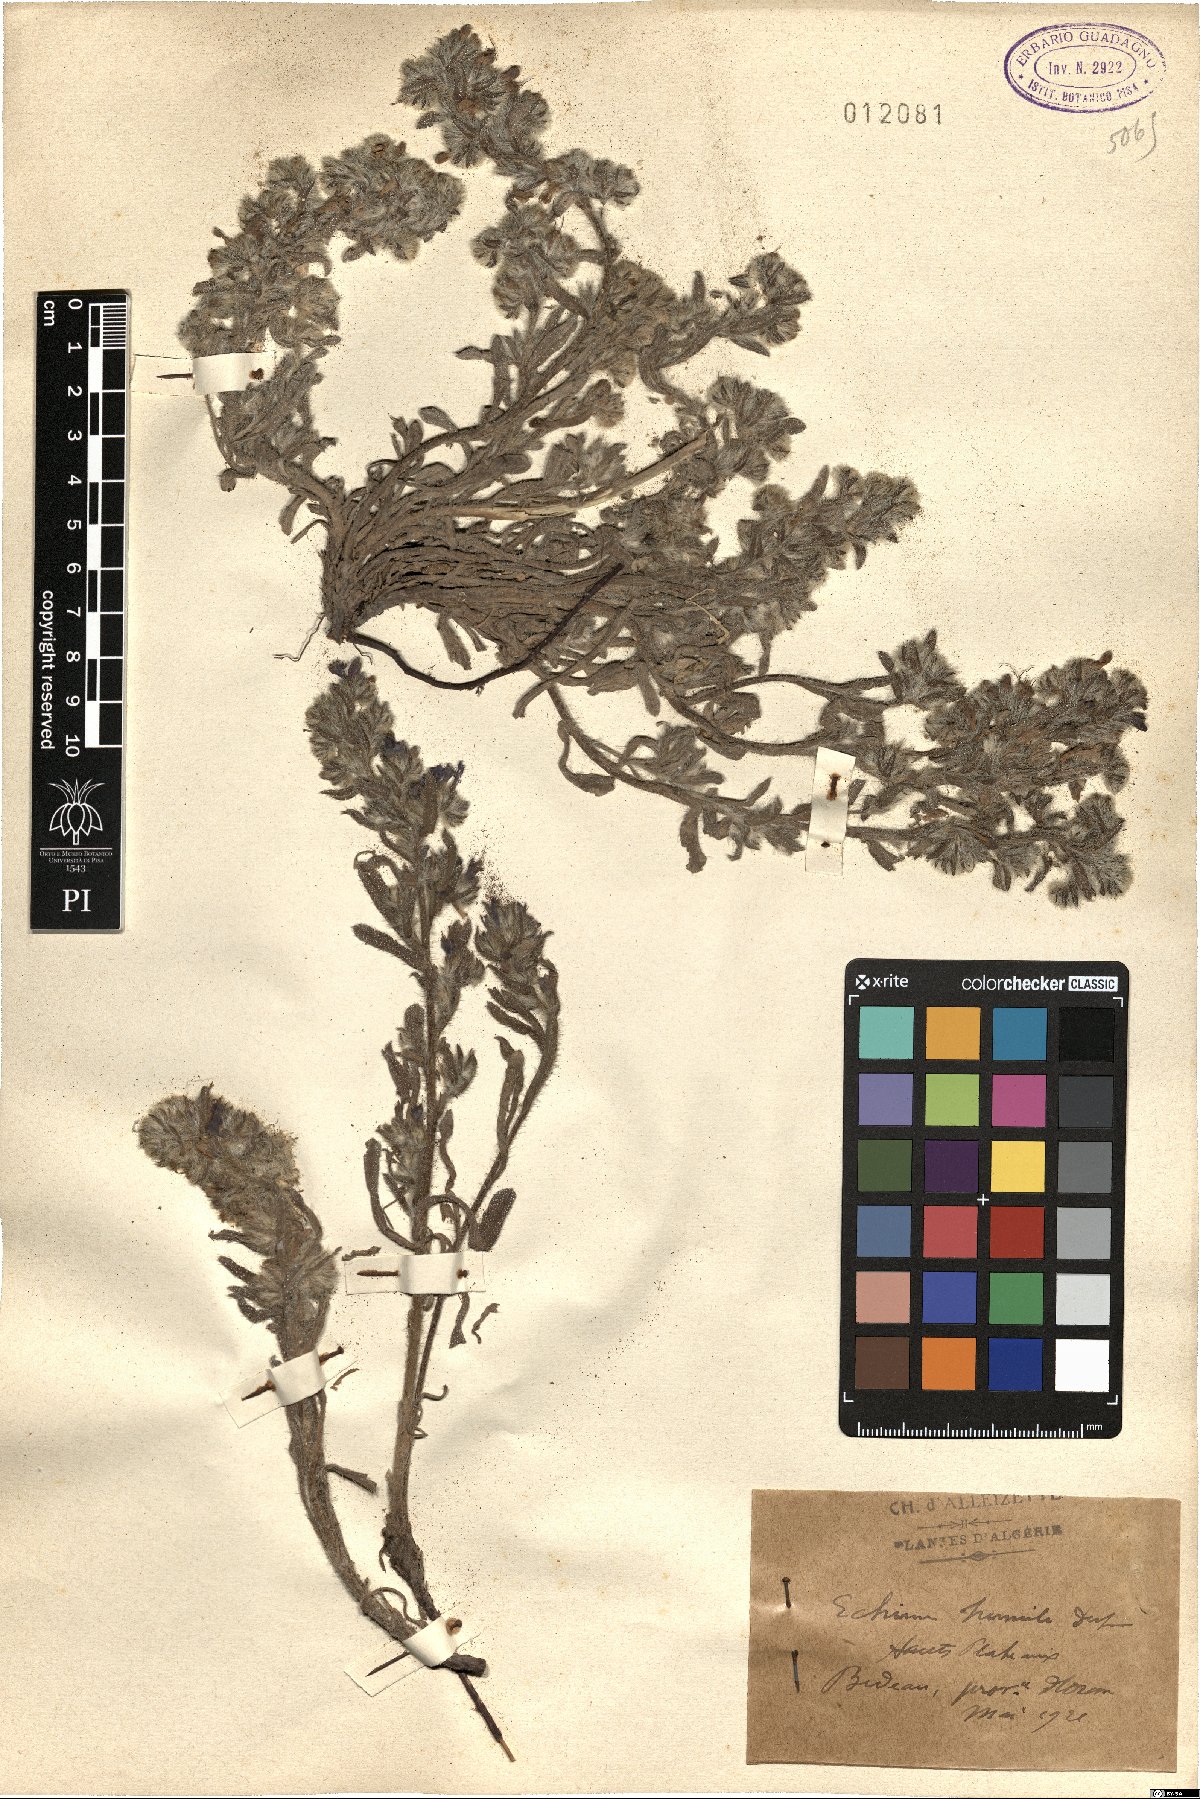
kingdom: Plantae
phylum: Tracheophyta
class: Magnoliopsida
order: Boraginales
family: Boraginaceae
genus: Echium
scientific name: Echium humile
